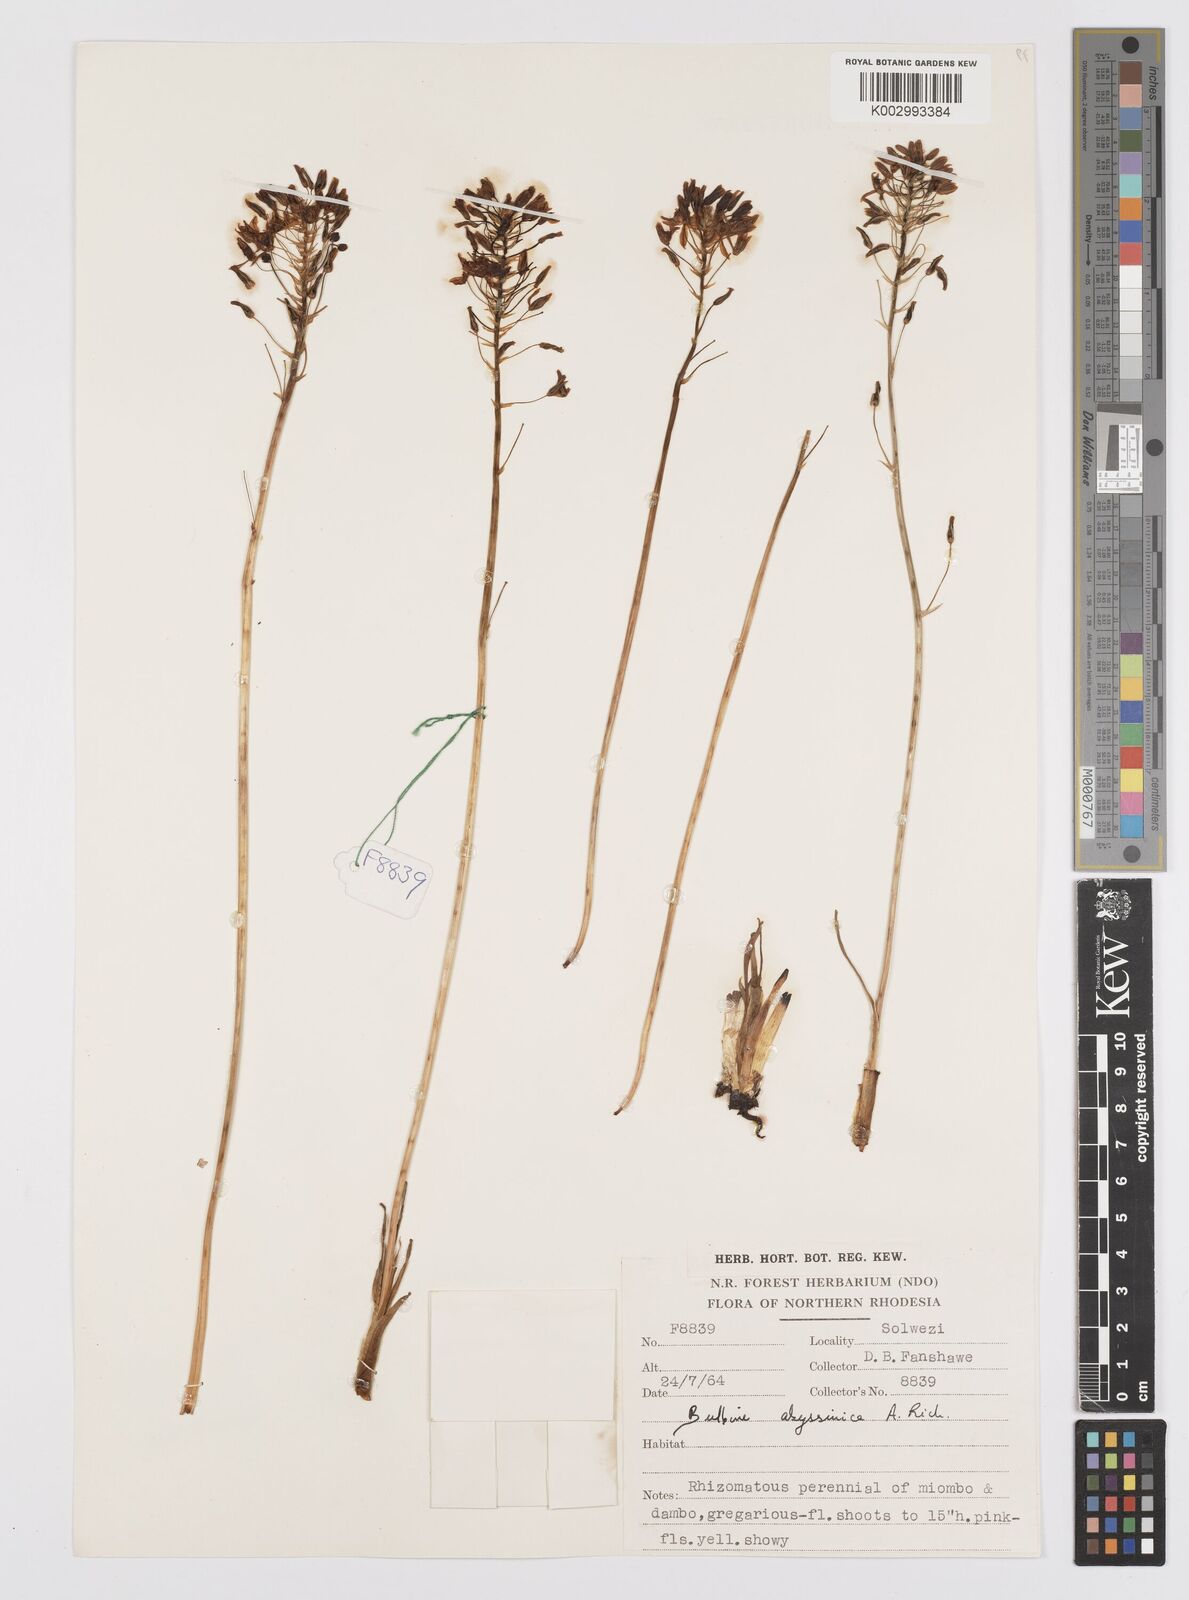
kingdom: Plantae
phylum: Tracheophyta
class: Liliopsida
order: Asparagales
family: Asphodelaceae
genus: Bulbine
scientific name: Bulbine abyssinica
